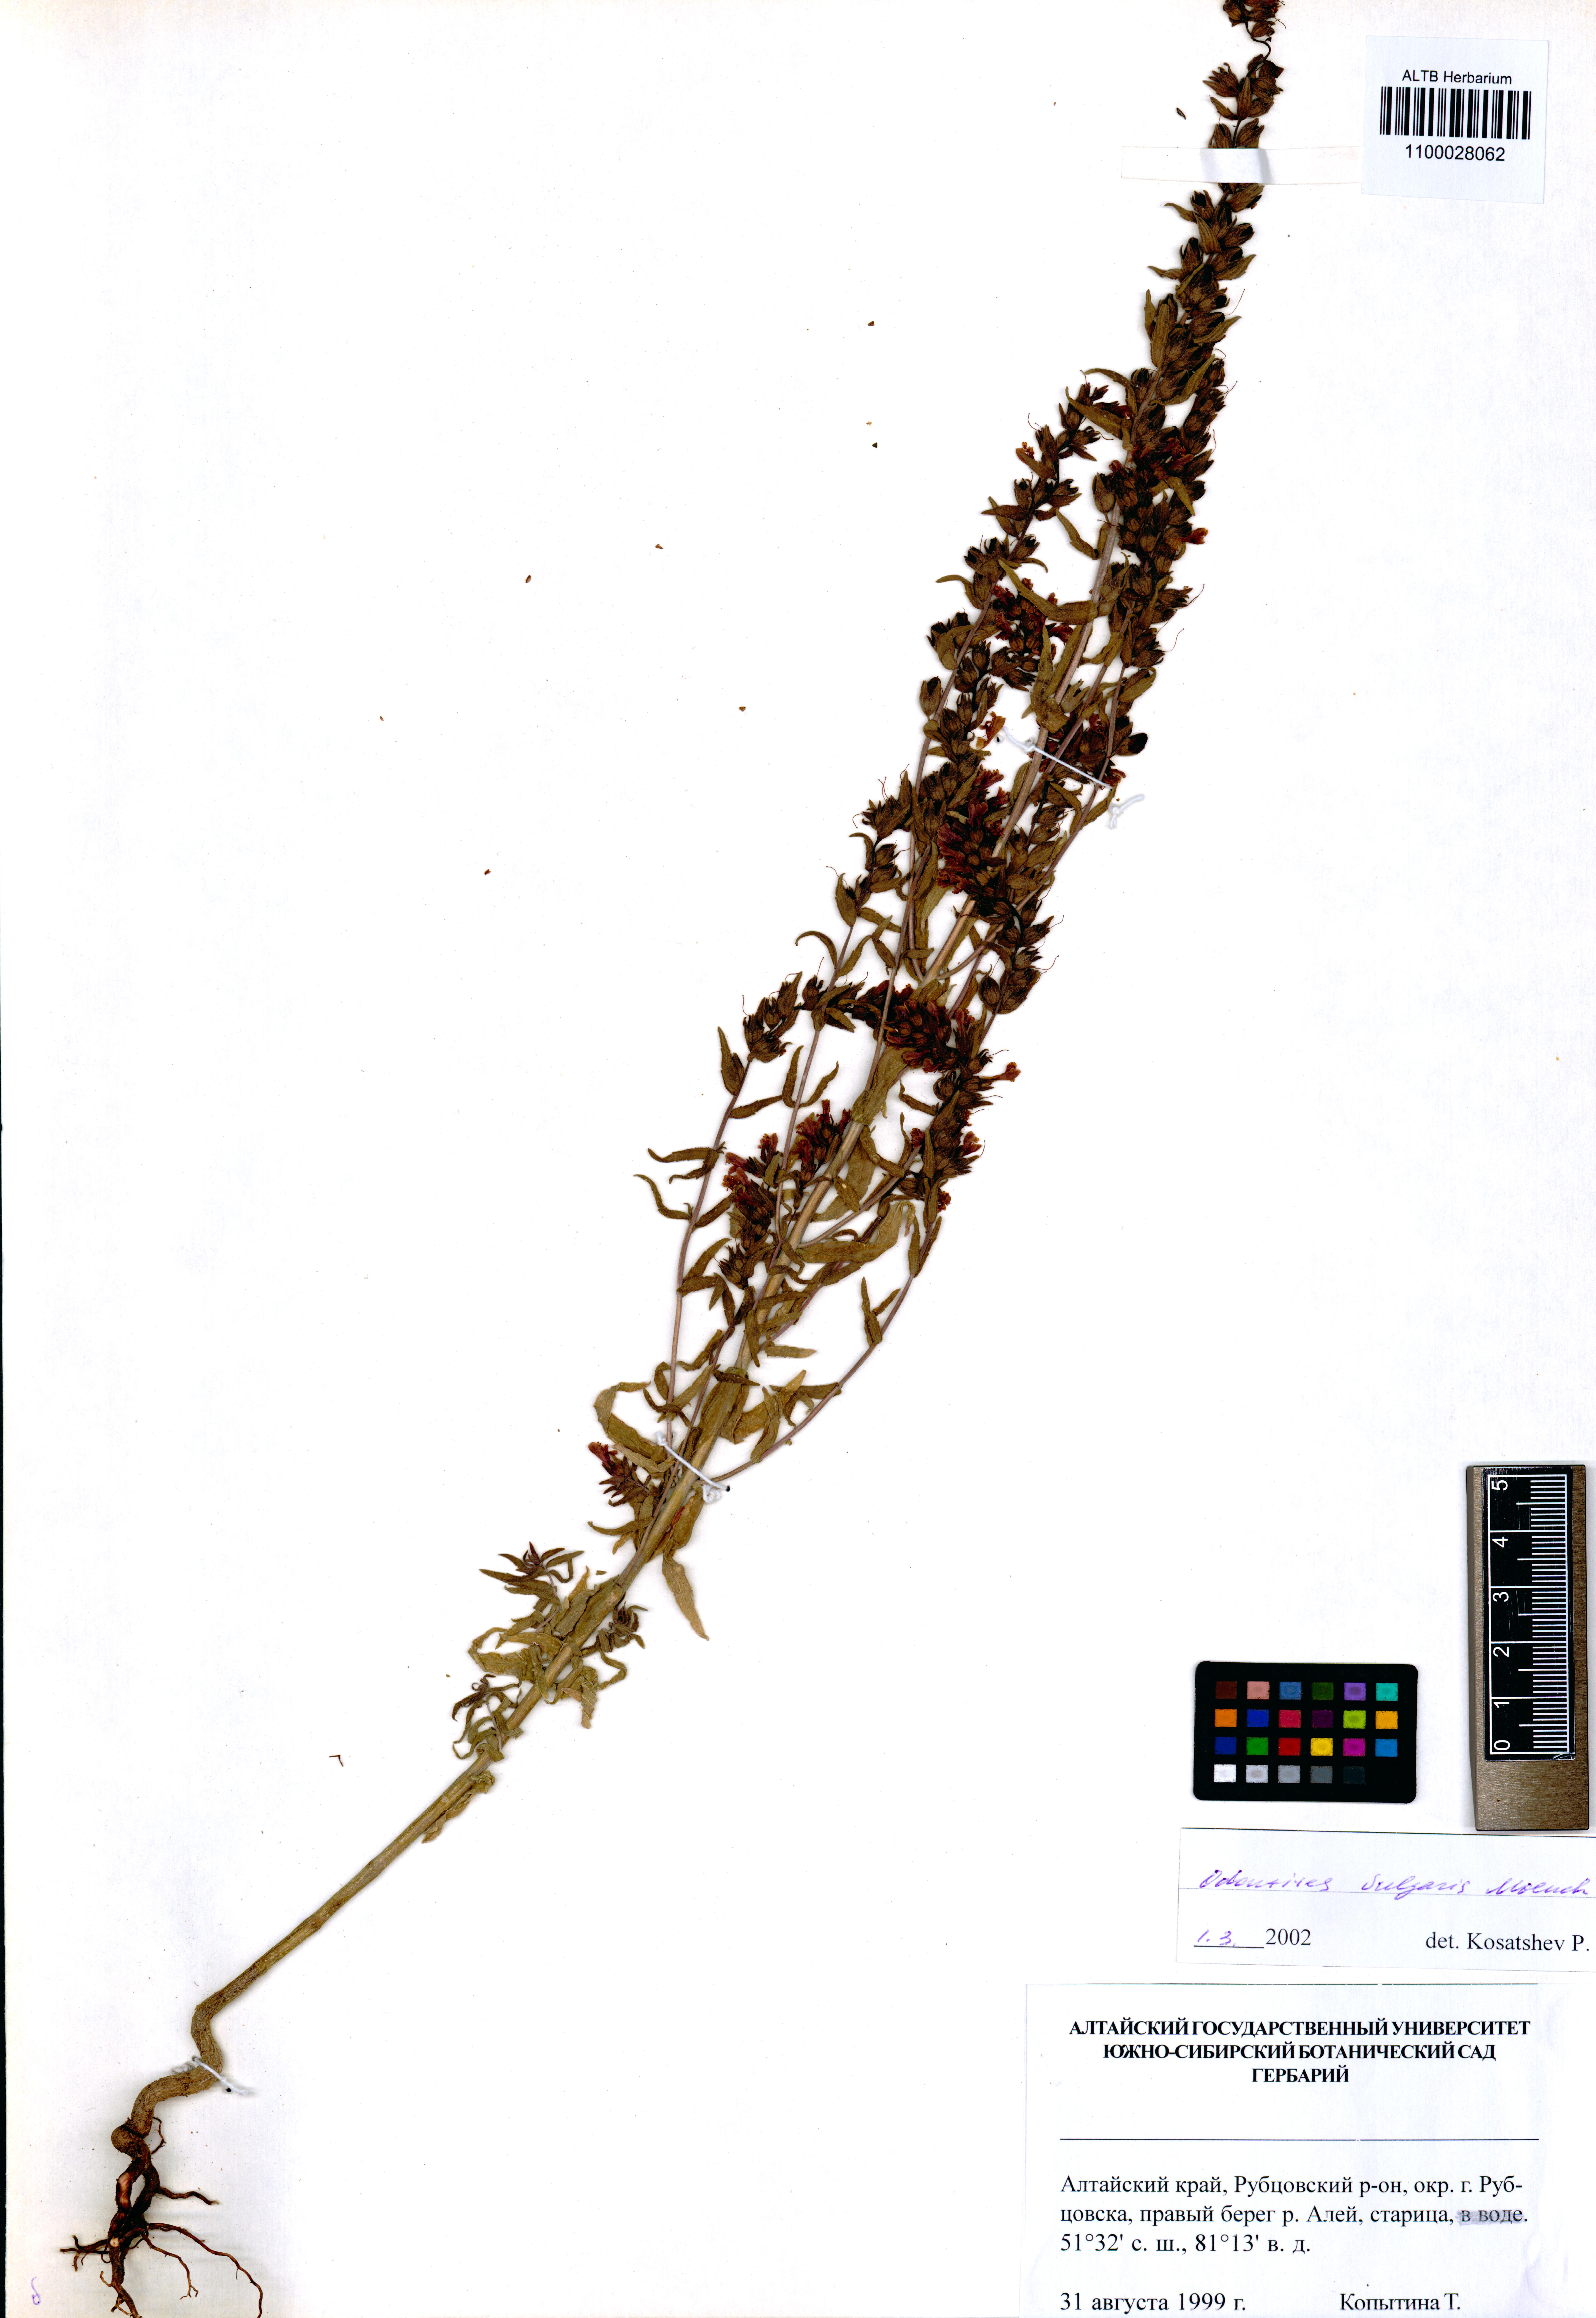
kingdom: Plantae
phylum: Tracheophyta
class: Magnoliopsida
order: Lamiales
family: Orobanchaceae
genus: Odontites
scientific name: Odontites vulgaris
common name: Broomrape
